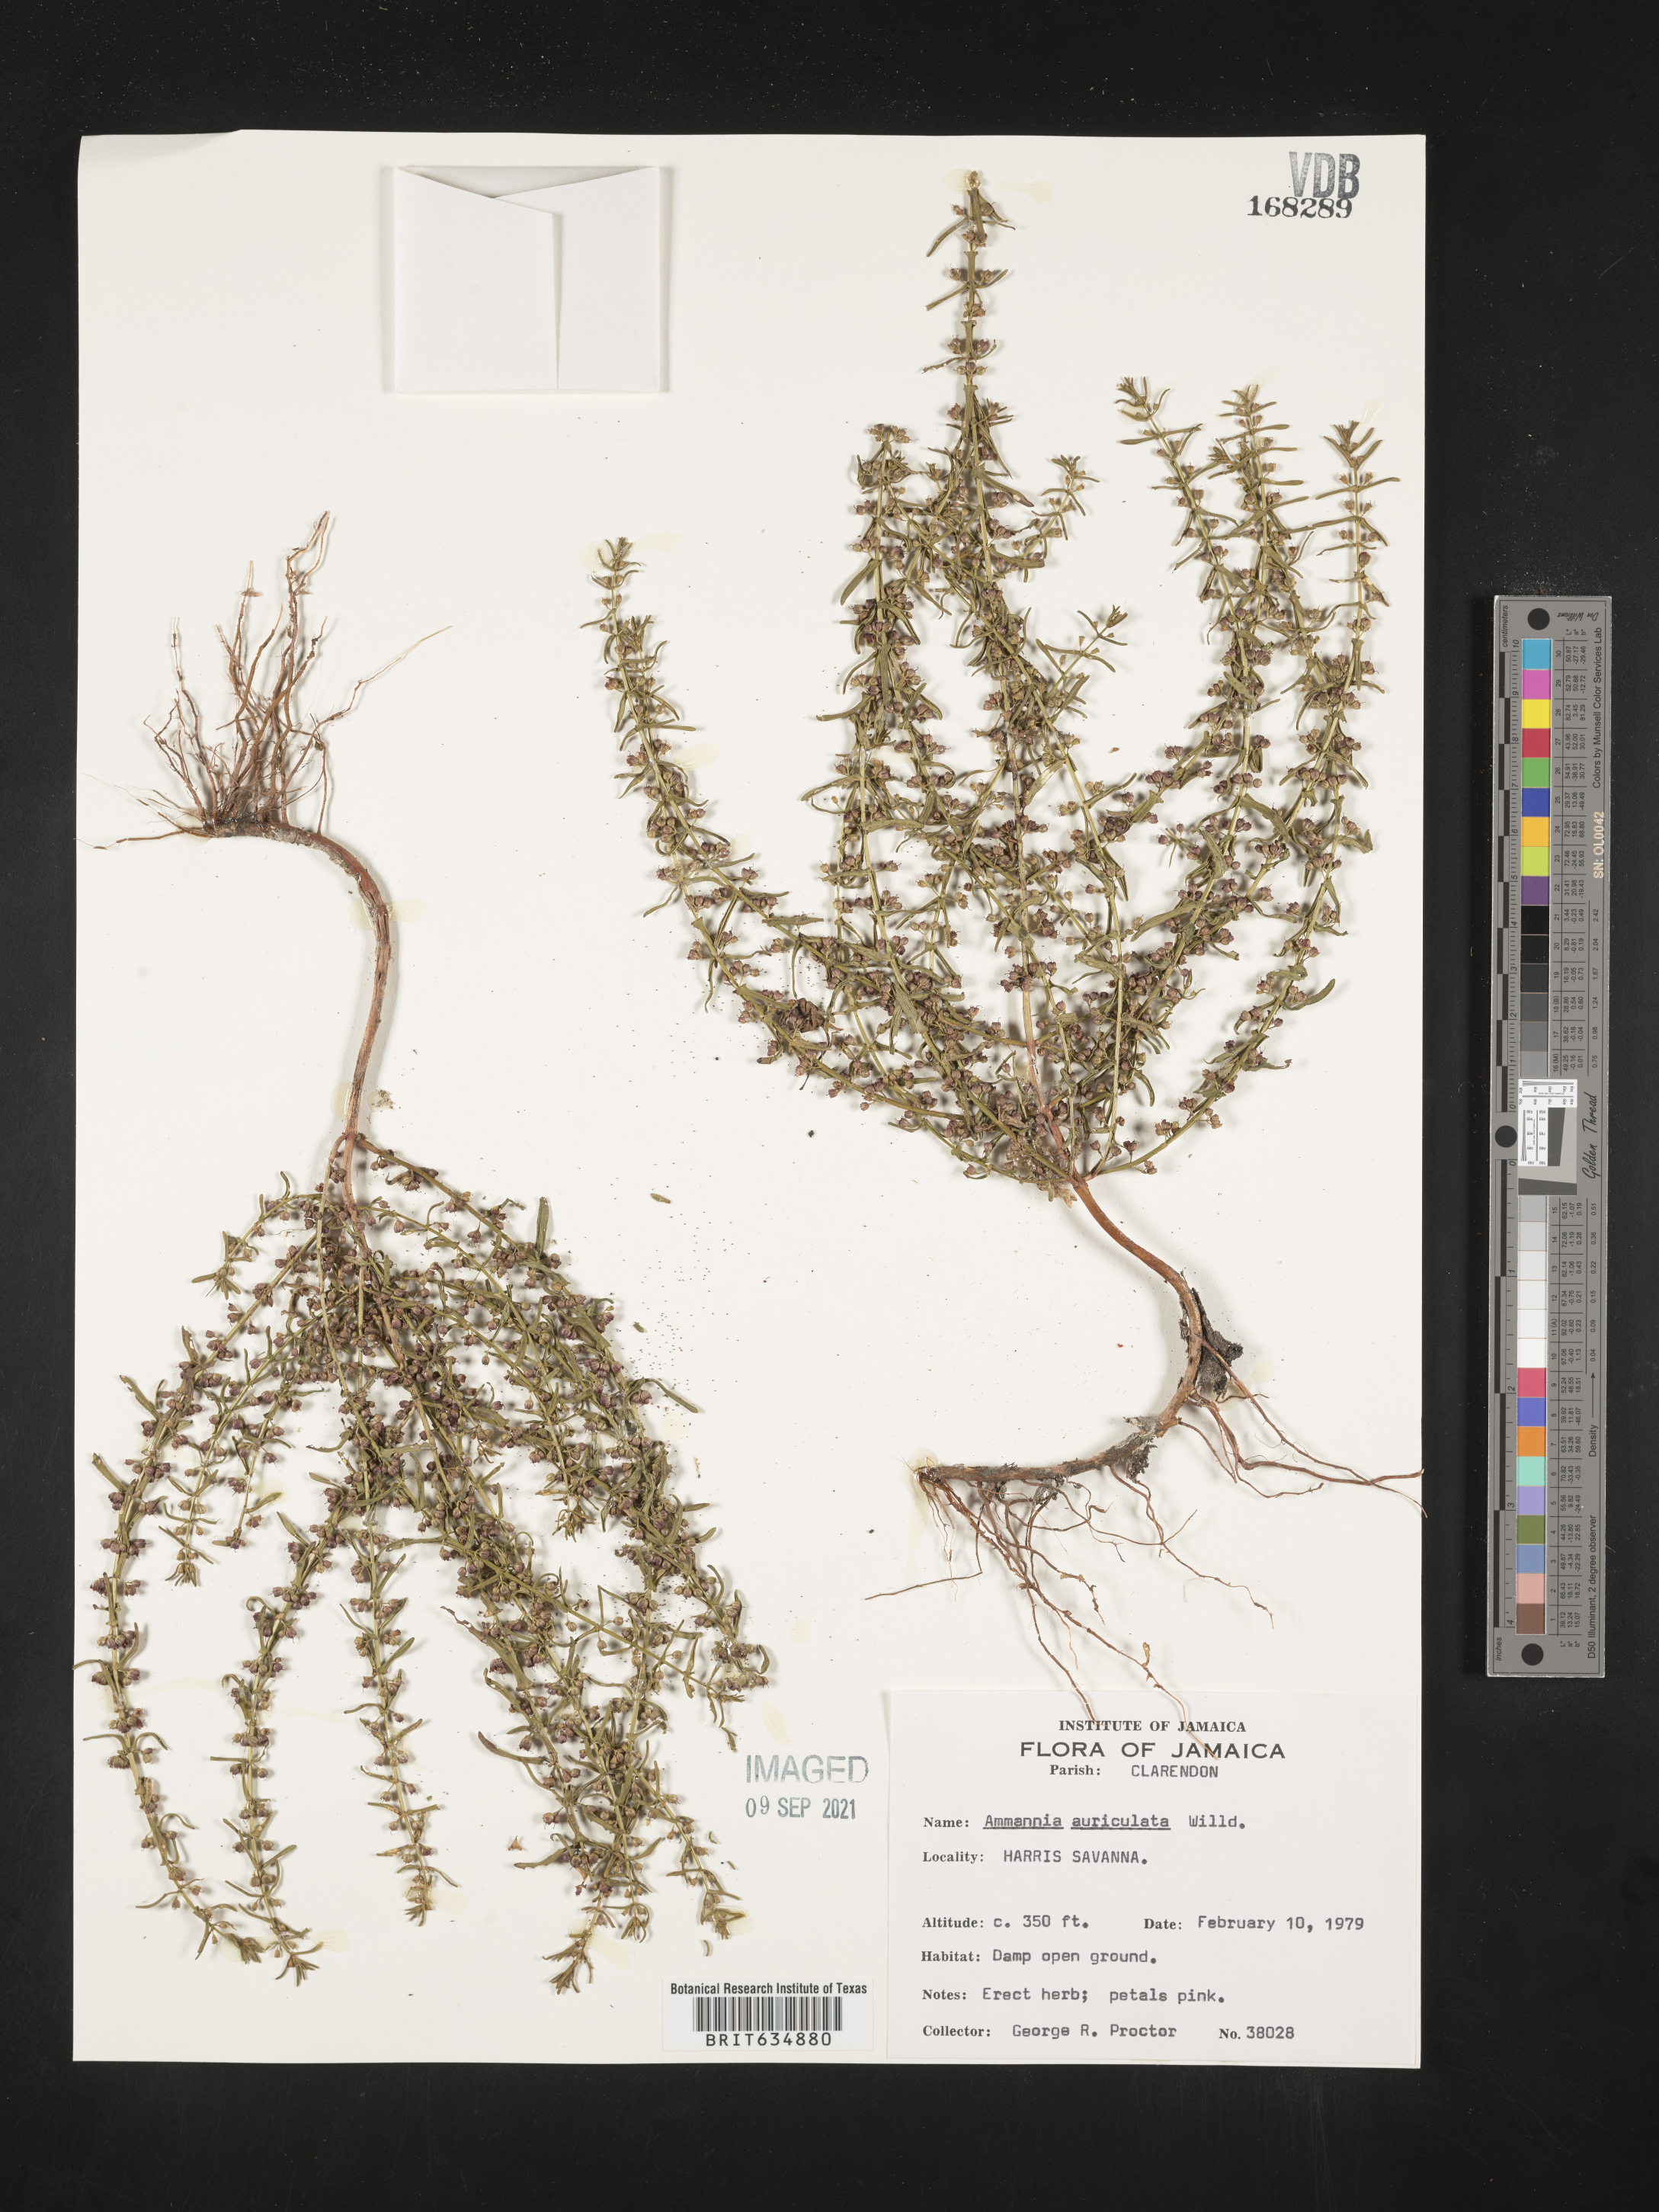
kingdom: Plantae
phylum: Tracheophyta
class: Magnoliopsida
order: Myrtales
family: Lythraceae
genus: Ammannia
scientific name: Ammannia
